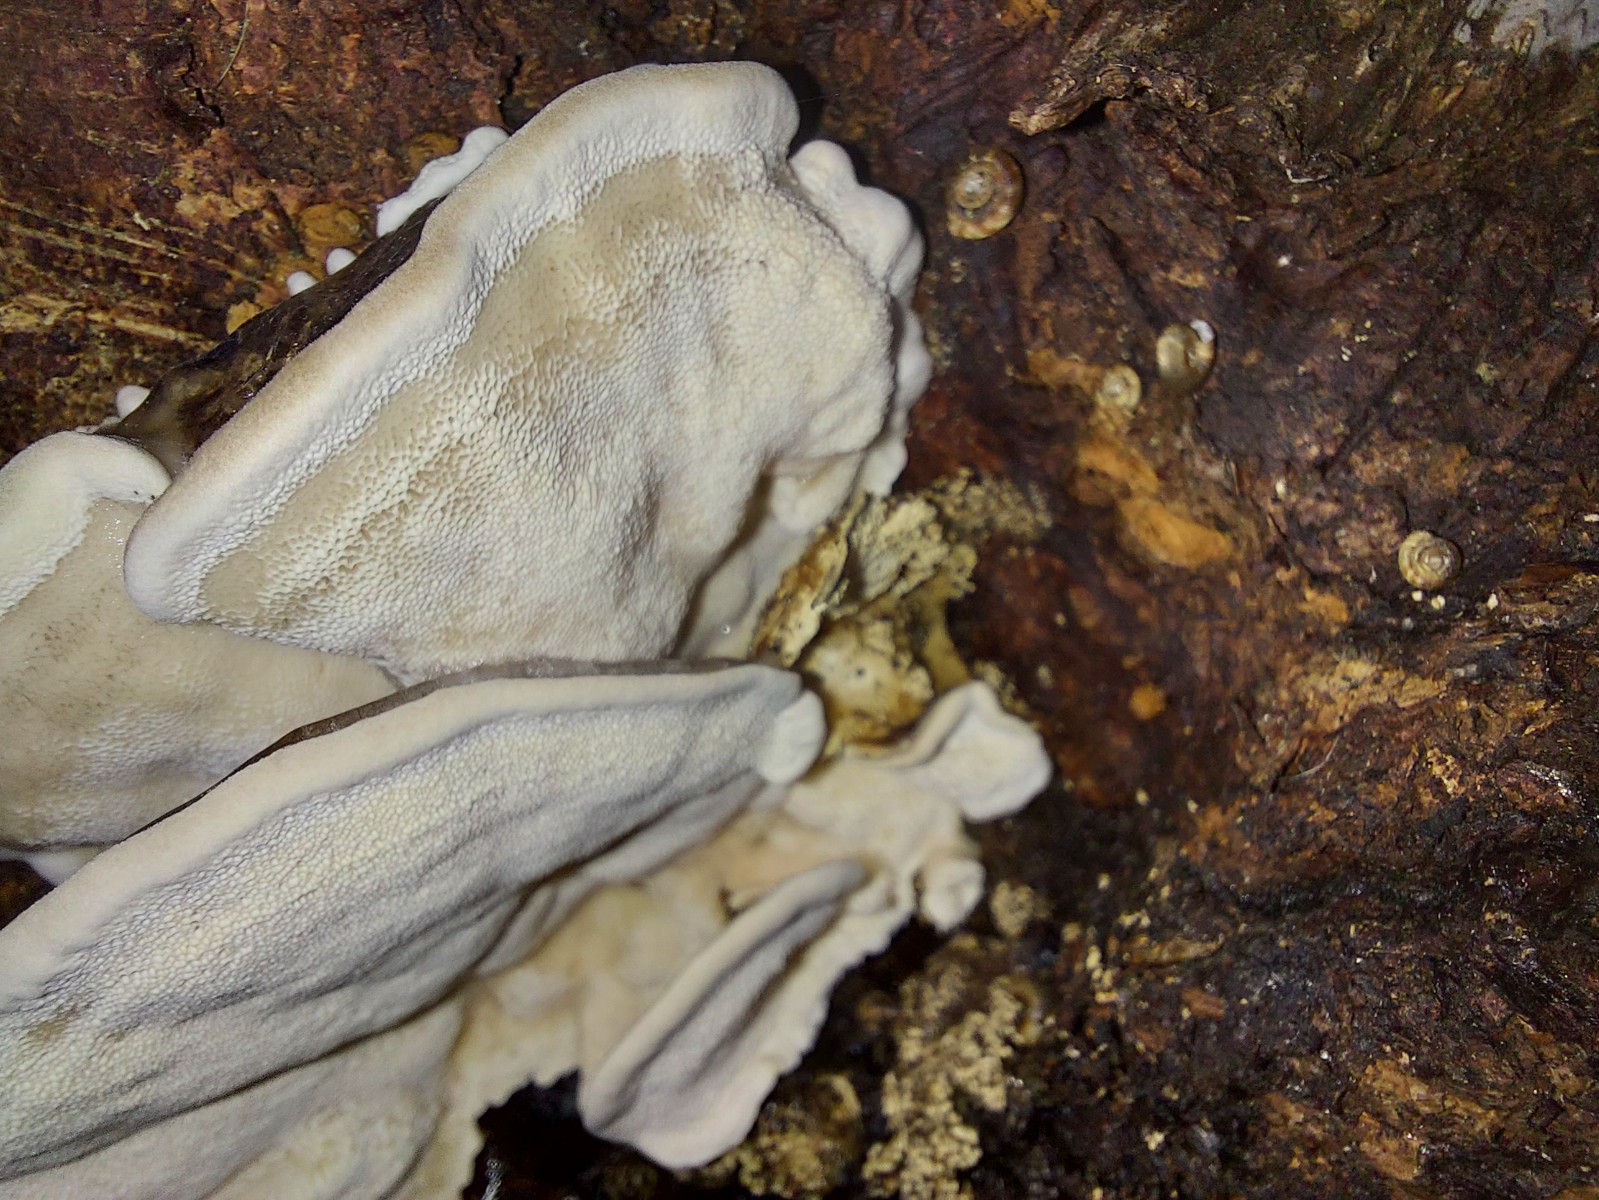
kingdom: Fungi
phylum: Basidiomycota
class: Agaricomycetes
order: Polyporales
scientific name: Polyporales
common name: poresvampordenen
